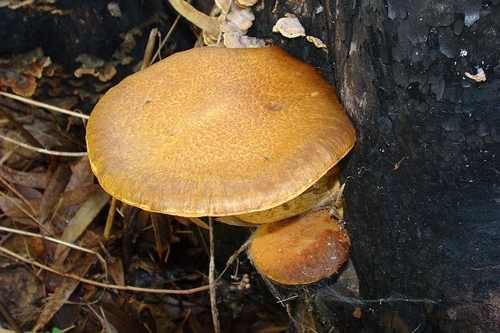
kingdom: Fungi
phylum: Basidiomycota
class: Agaricomycetes
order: Agaricales
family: Hymenogastraceae
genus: Gymnopilus
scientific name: Gymnopilus junonius
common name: Spectacular rustgill
